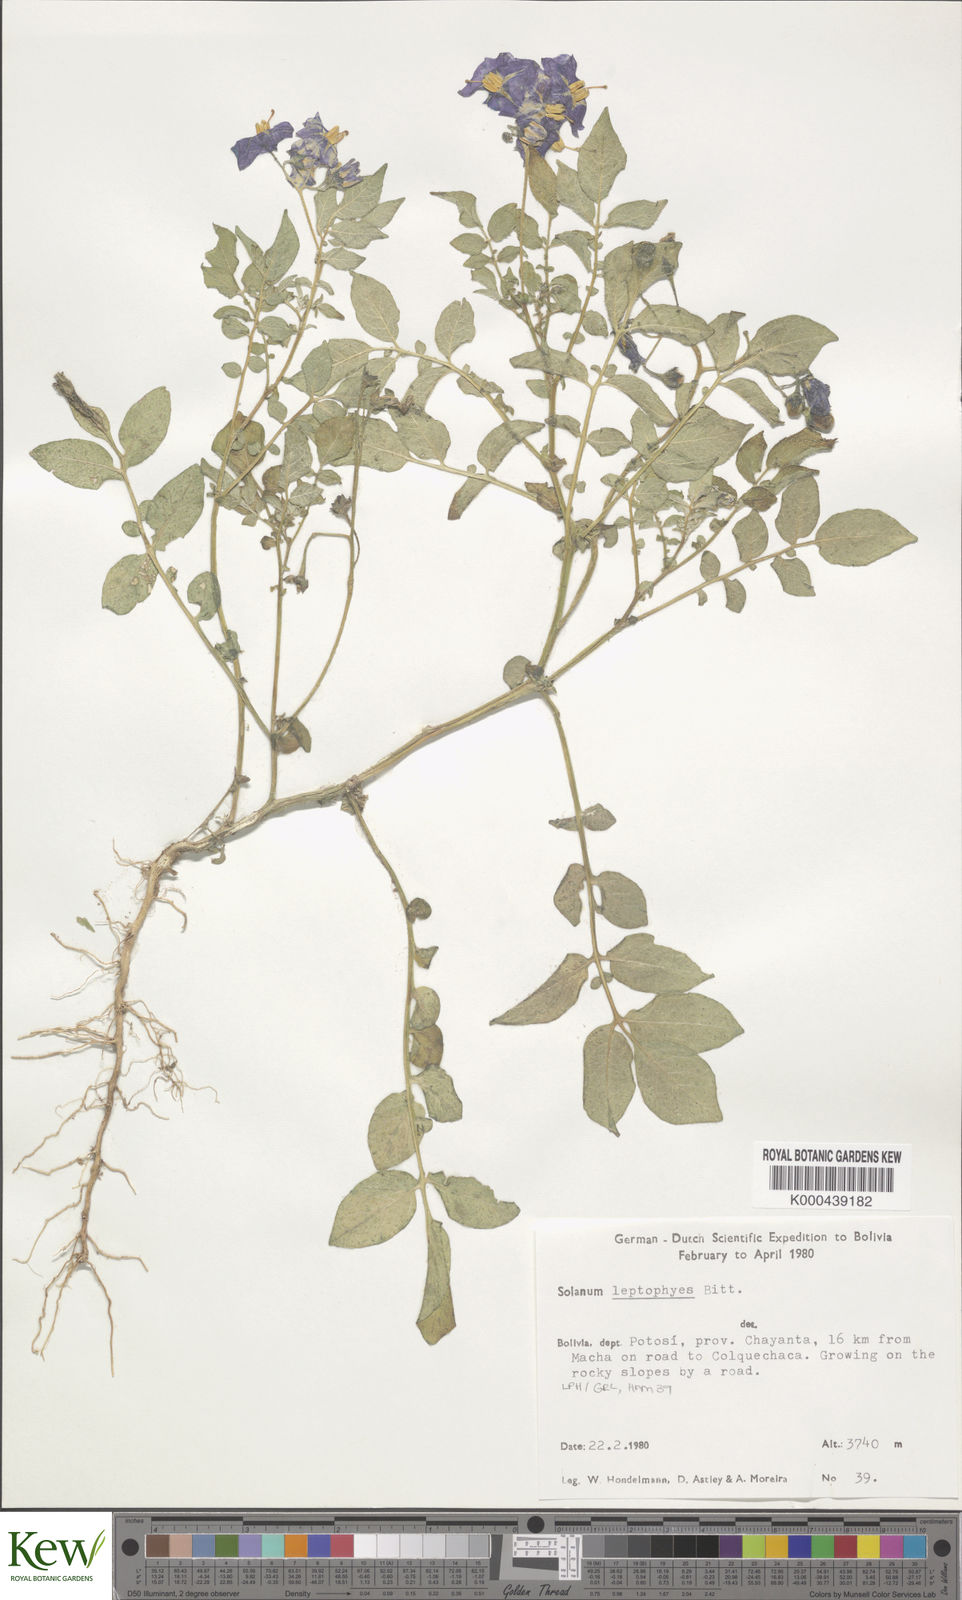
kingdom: Plantae
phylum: Tracheophyta
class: Magnoliopsida
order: Solanales
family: Solanaceae
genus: Solanum
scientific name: Solanum brevicaule
